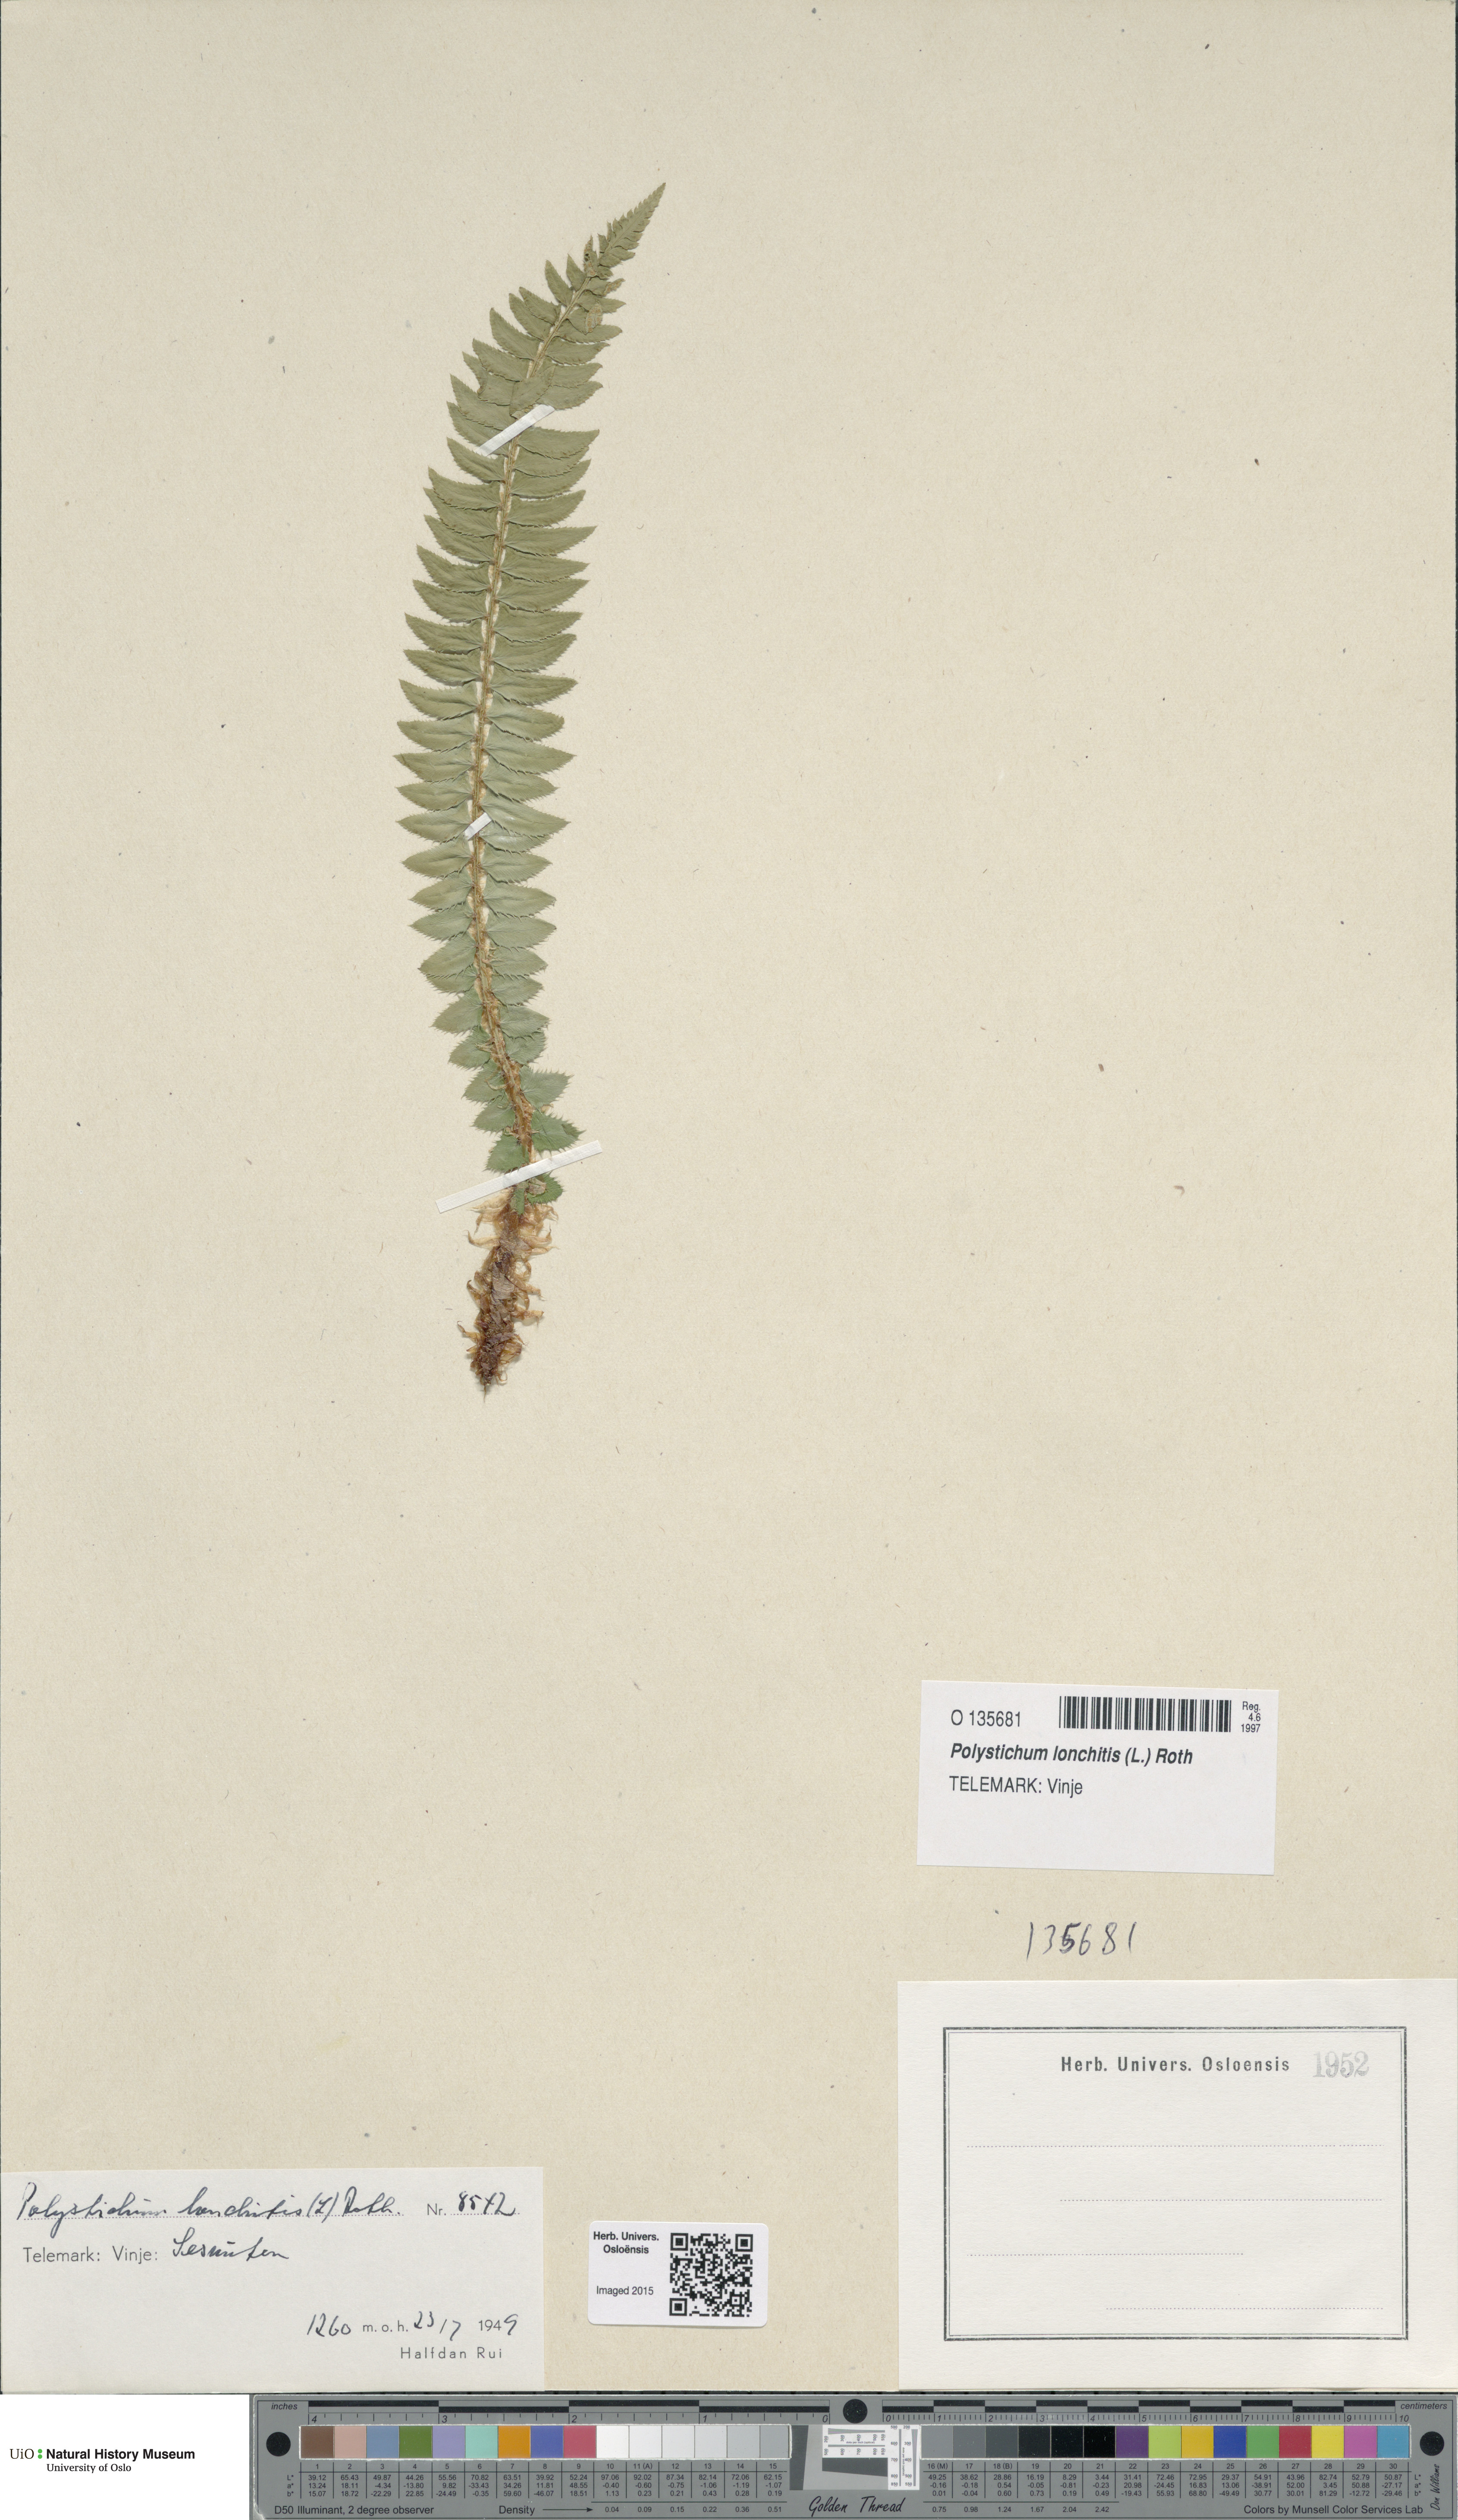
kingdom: Plantae
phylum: Tracheophyta
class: Polypodiopsida
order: Polypodiales
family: Dryopteridaceae
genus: Polystichum
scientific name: Polystichum lonchitis
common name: Holly fern
